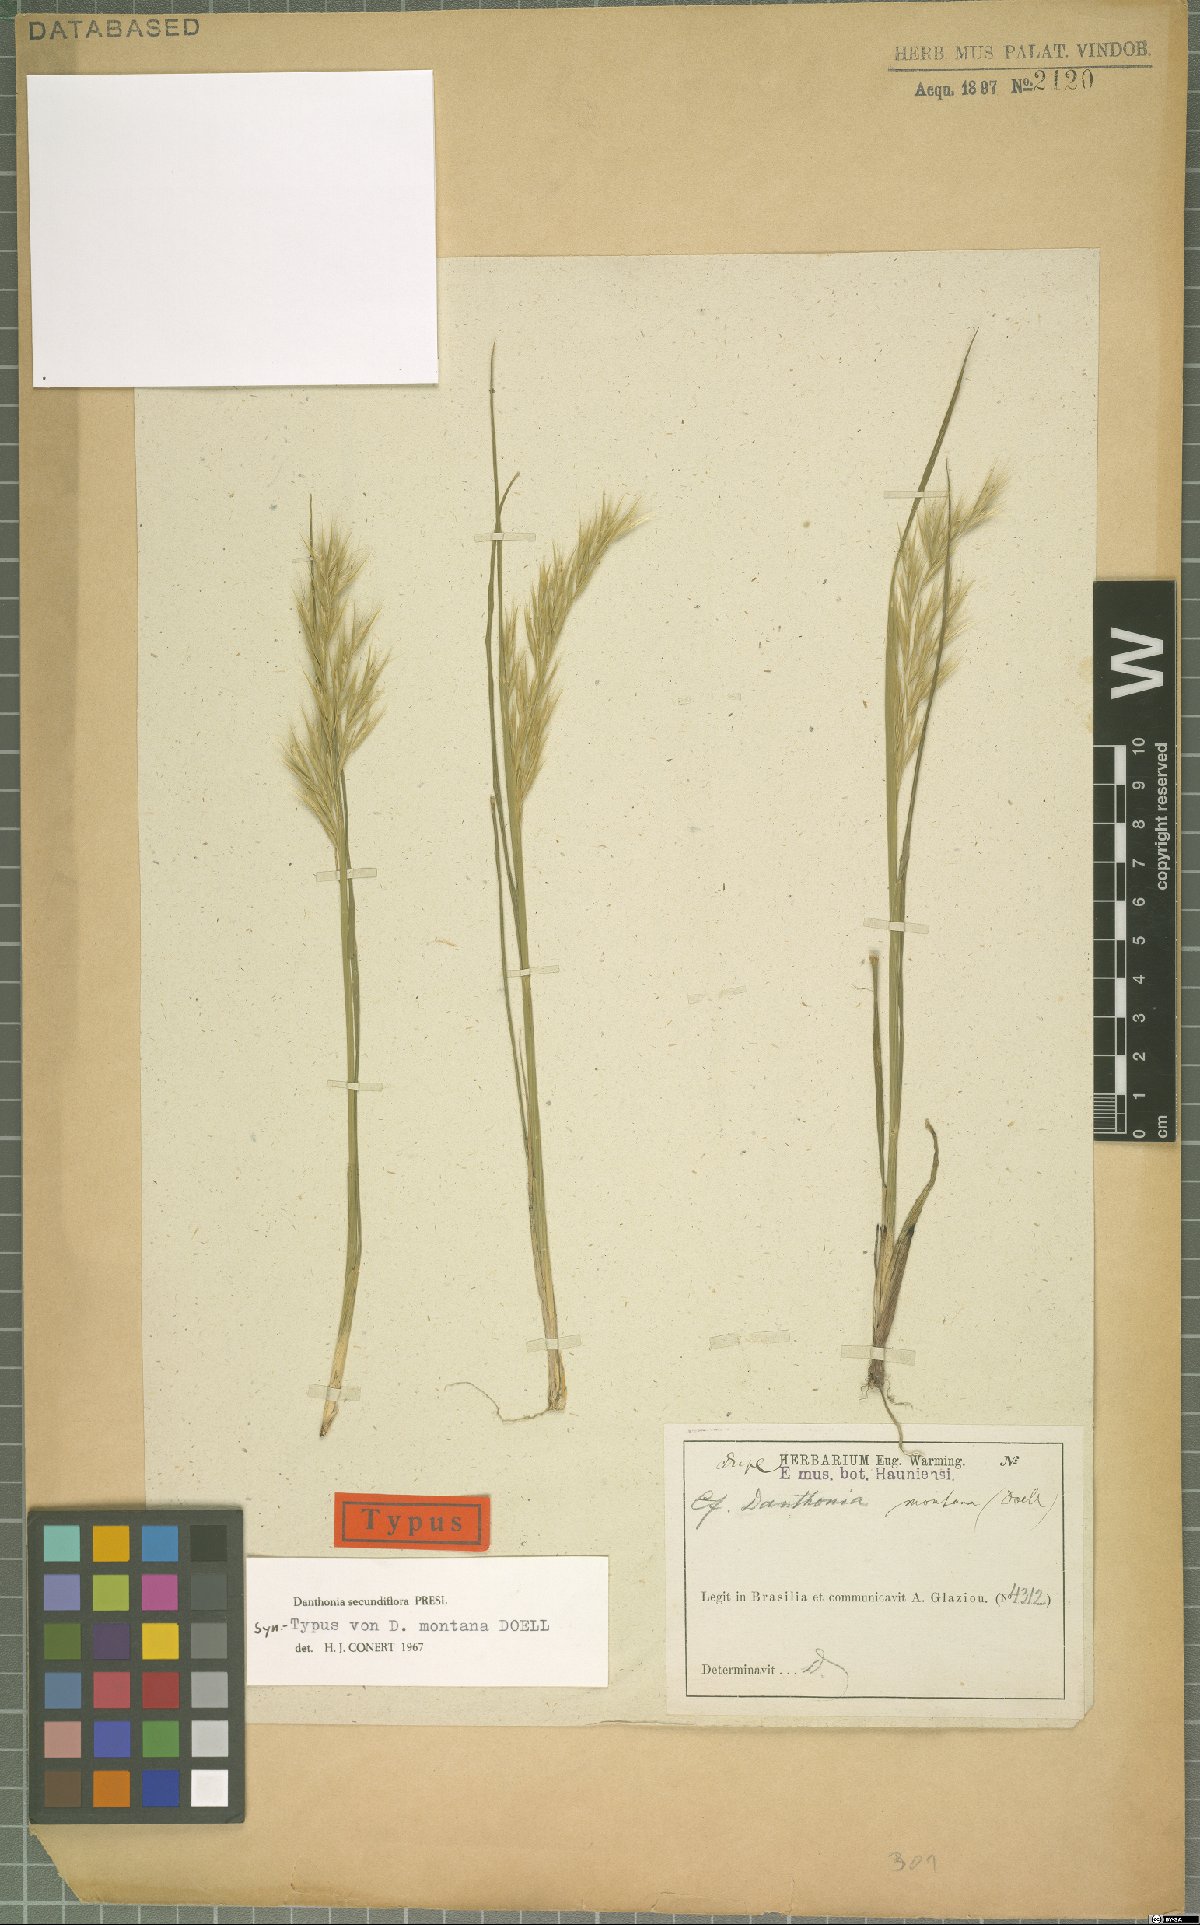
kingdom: Plantae
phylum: Tracheophyta
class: Liliopsida
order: Poales
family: Poaceae
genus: Danthonia
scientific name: Danthonia secundiflora
